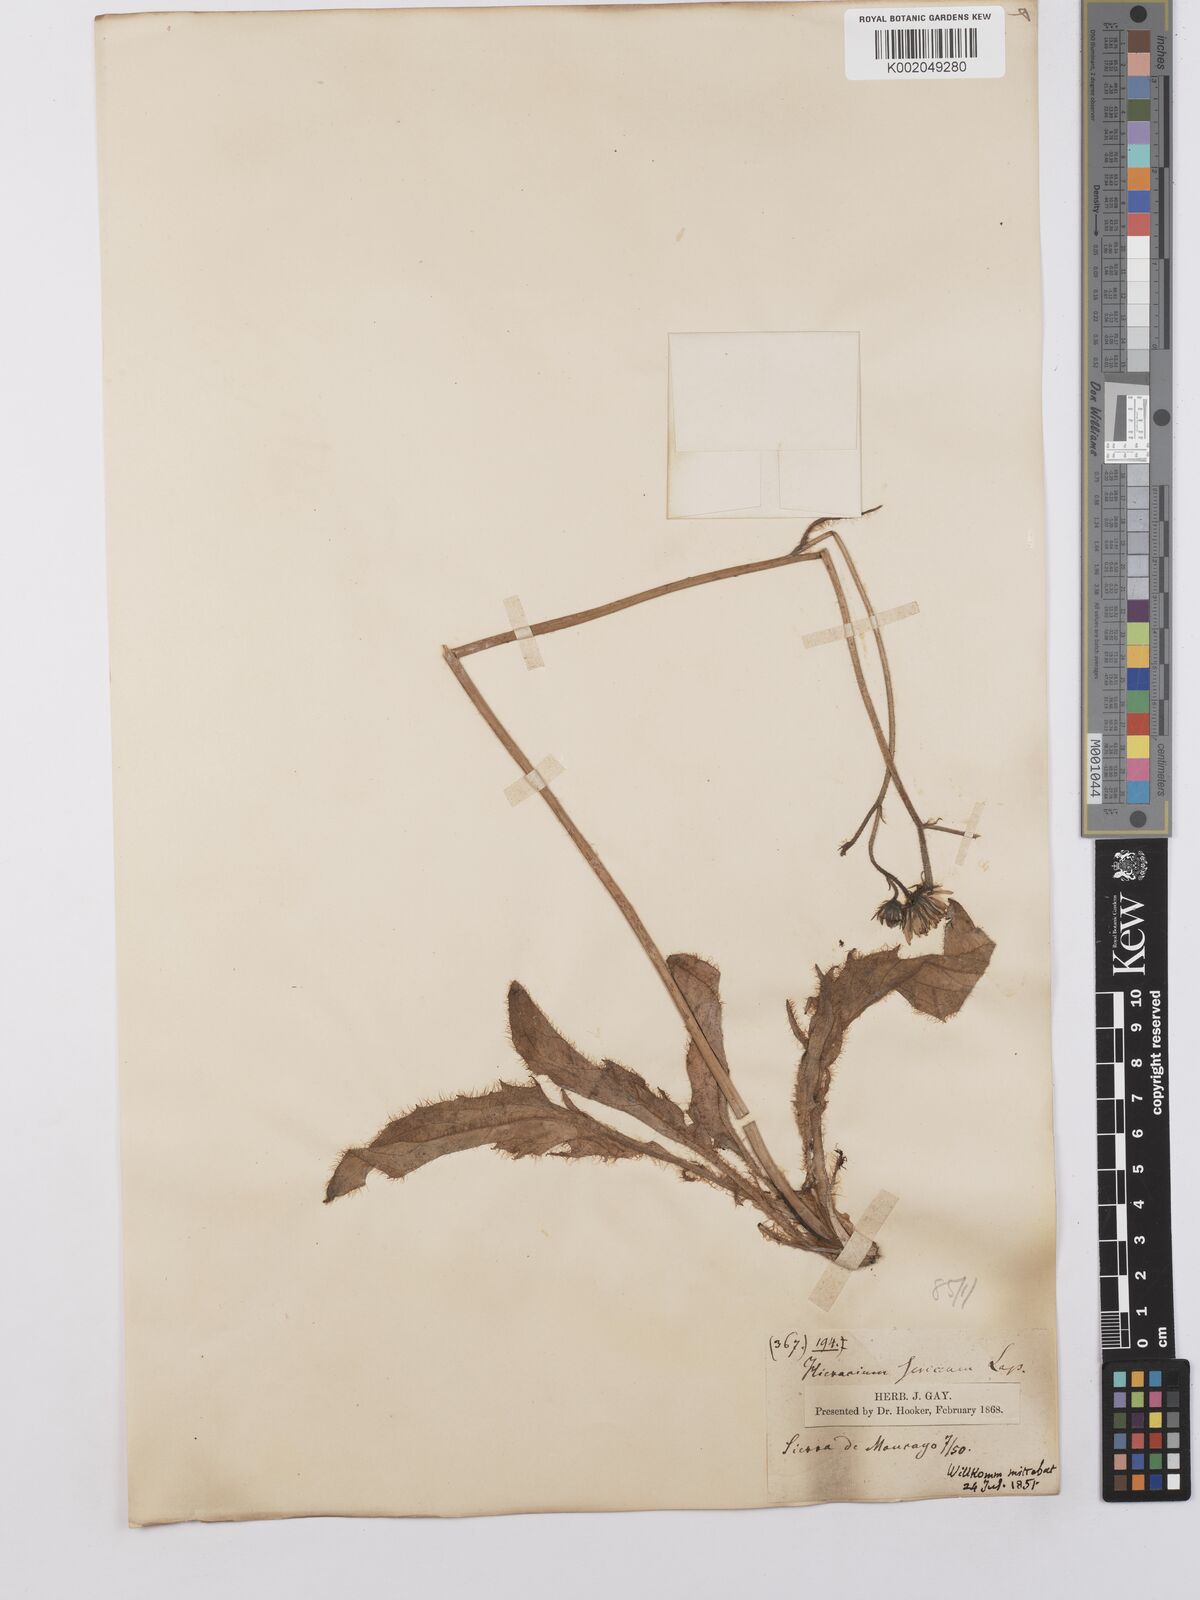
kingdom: Plantae
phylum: Tracheophyta
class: Magnoliopsida
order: Asterales
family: Asteraceae
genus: Hieracium
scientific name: Hieracium
